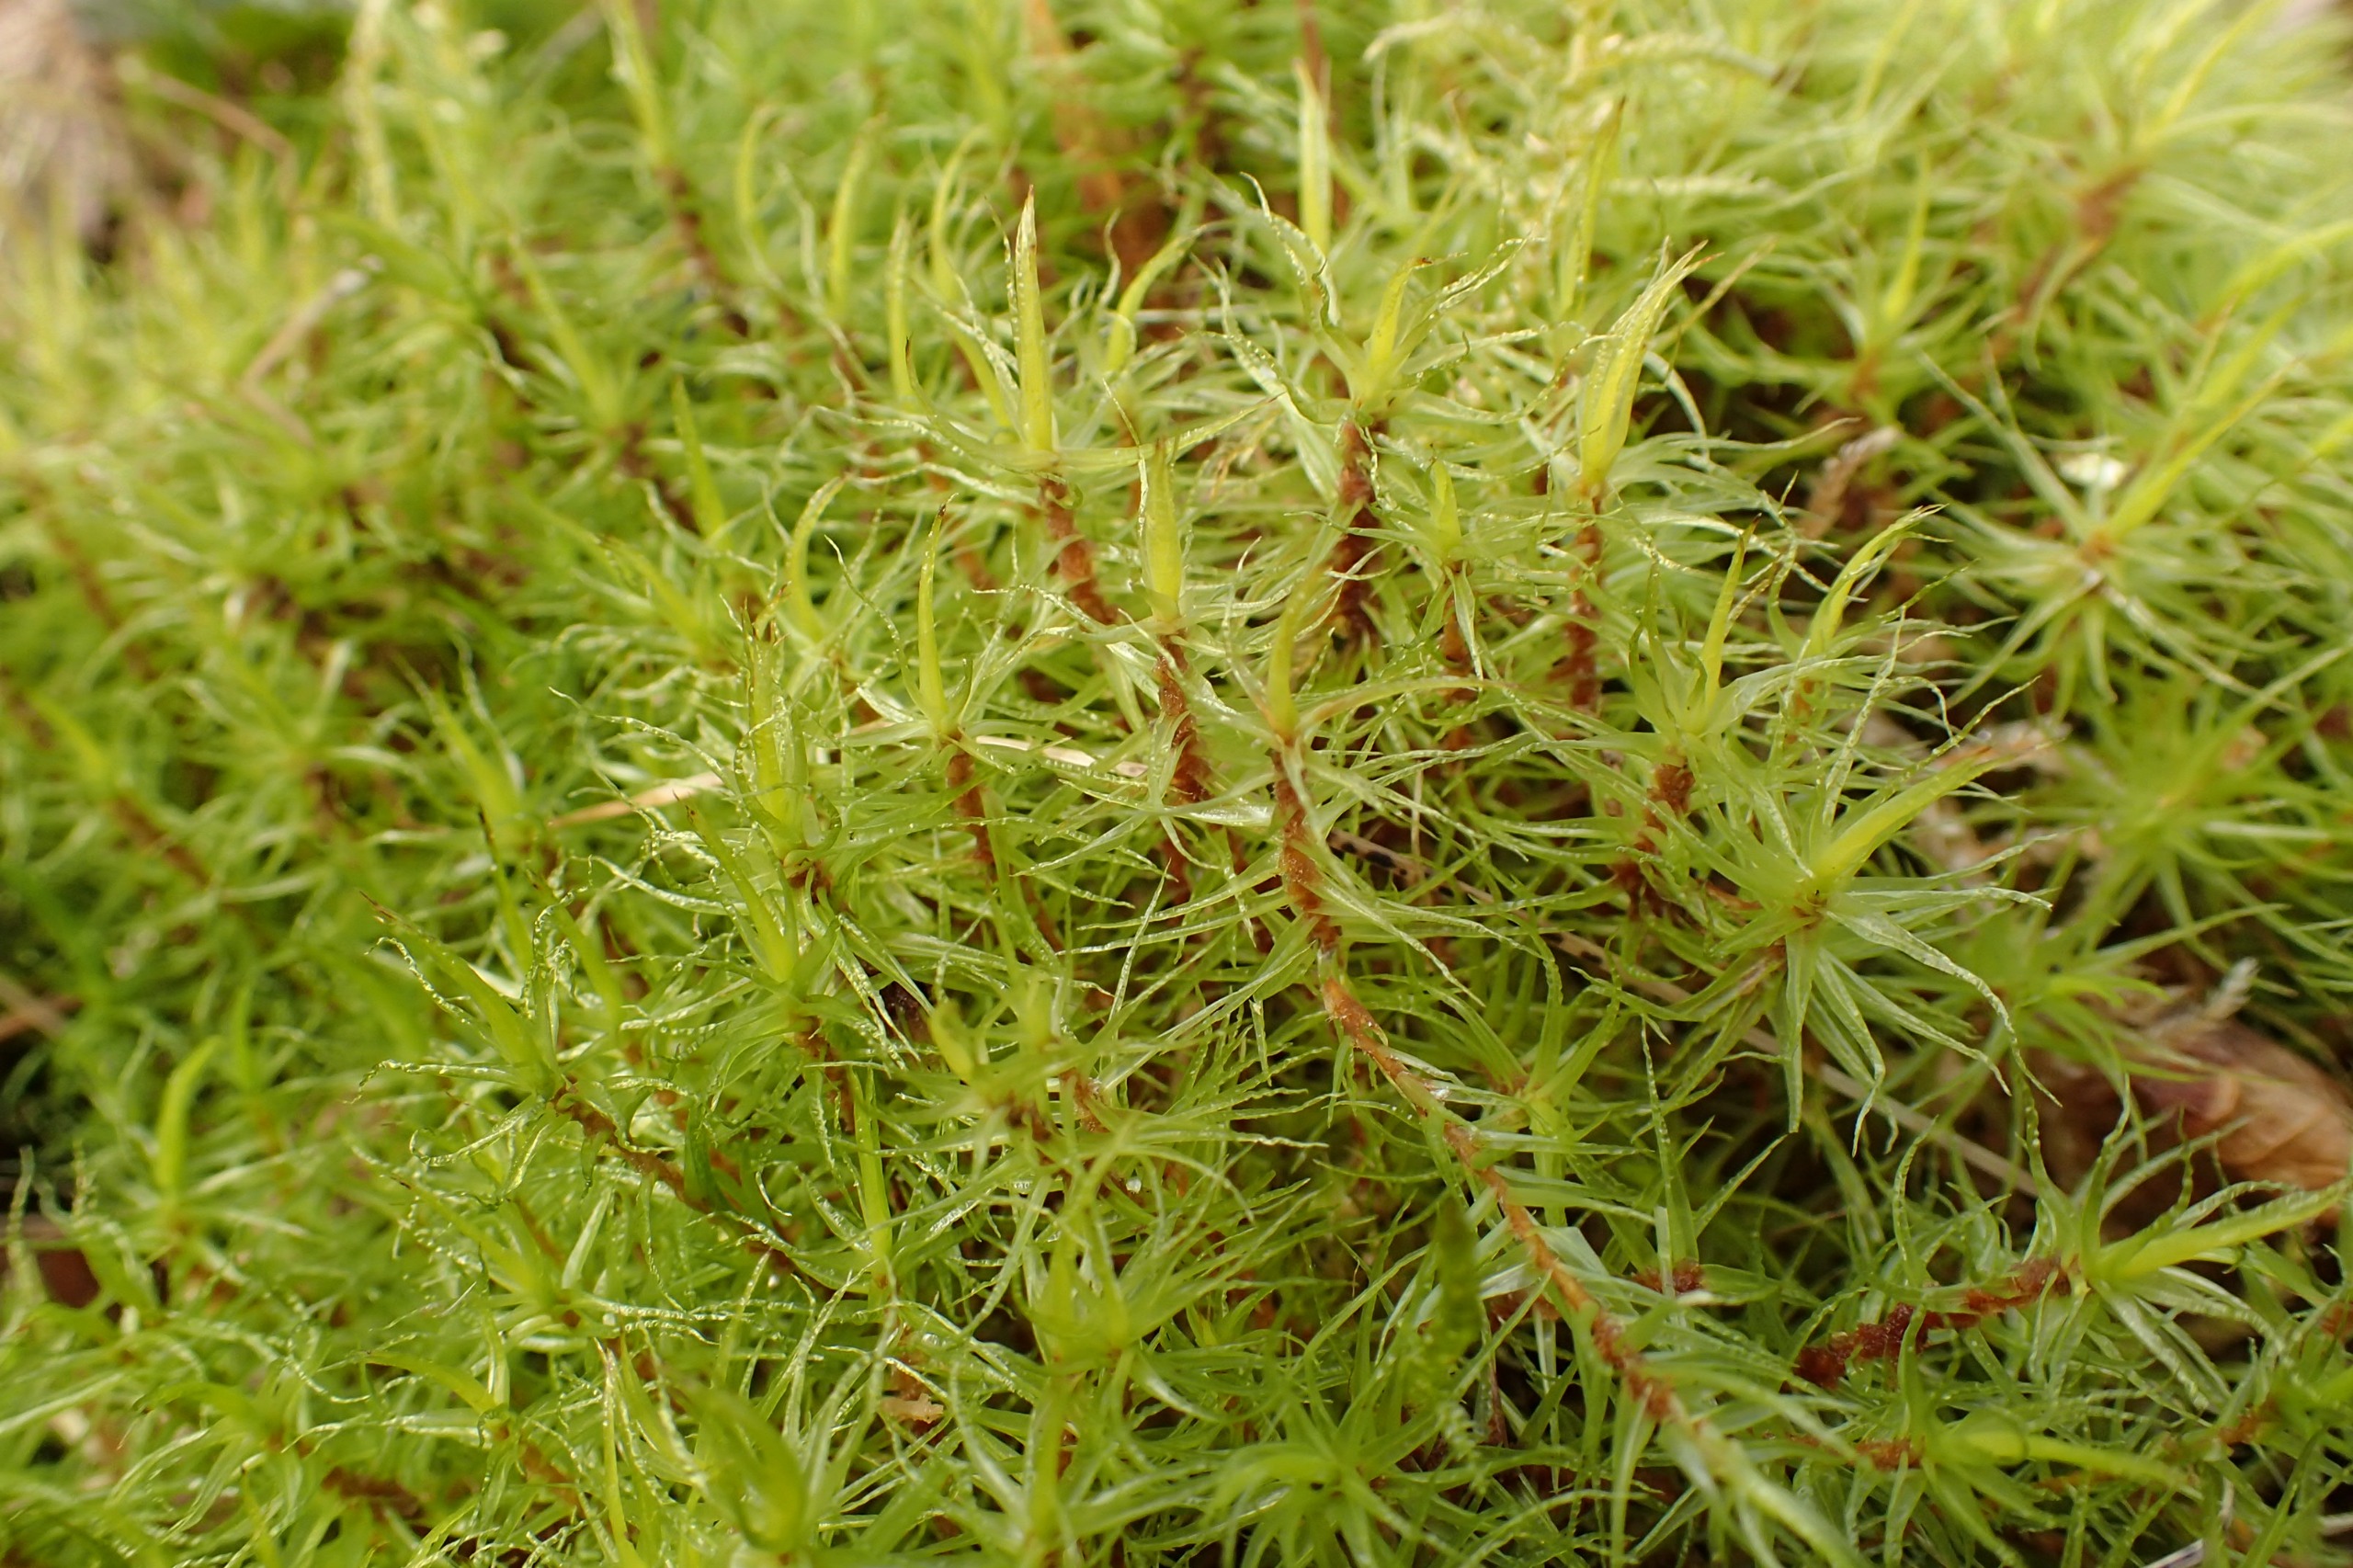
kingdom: Plantae
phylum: Bryophyta
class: Bryopsida
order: Dicranales
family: Dicranaceae
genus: Dicranum
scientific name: Dicranum bonjeanii
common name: Kær-kløvtand
